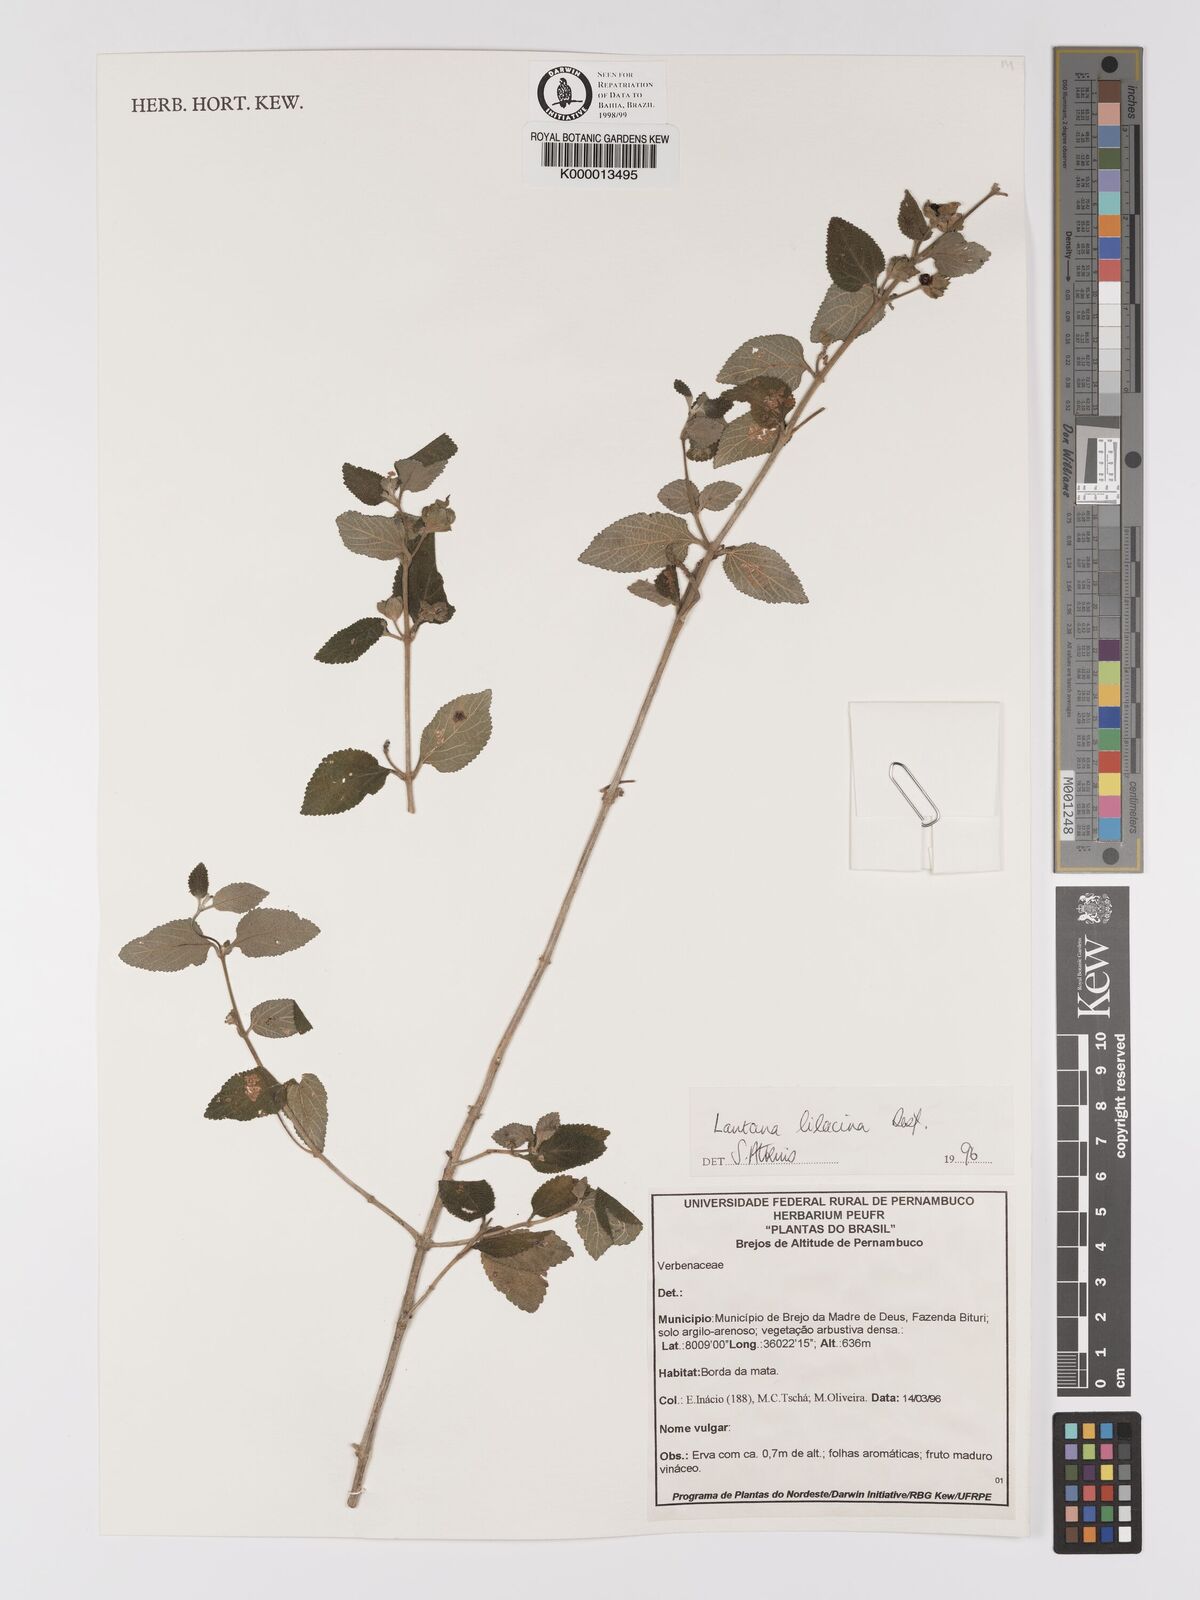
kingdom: Plantae
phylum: Tracheophyta
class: Magnoliopsida
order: Lamiales
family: Verbenaceae
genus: Lantana
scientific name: Lantana fucata
